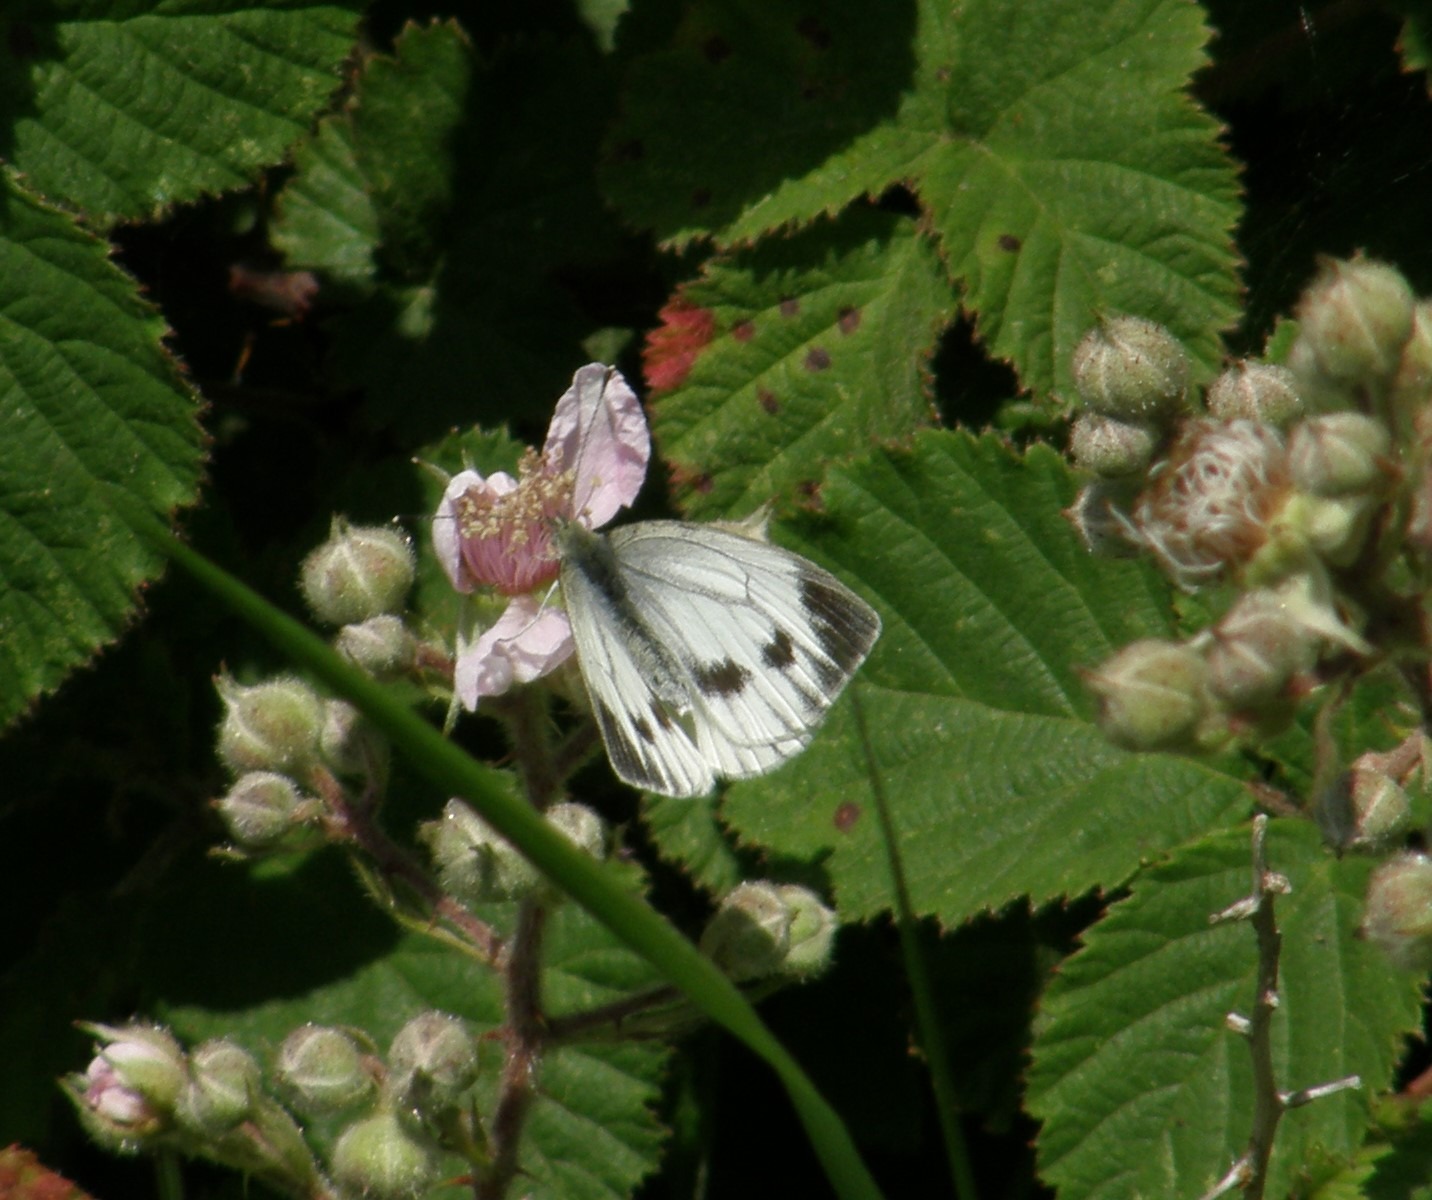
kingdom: Animalia
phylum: Arthropoda
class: Insecta
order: Lepidoptera
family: Pieridae
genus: Pieris
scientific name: Pieris napi
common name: Grønåret kålsommerfugl
